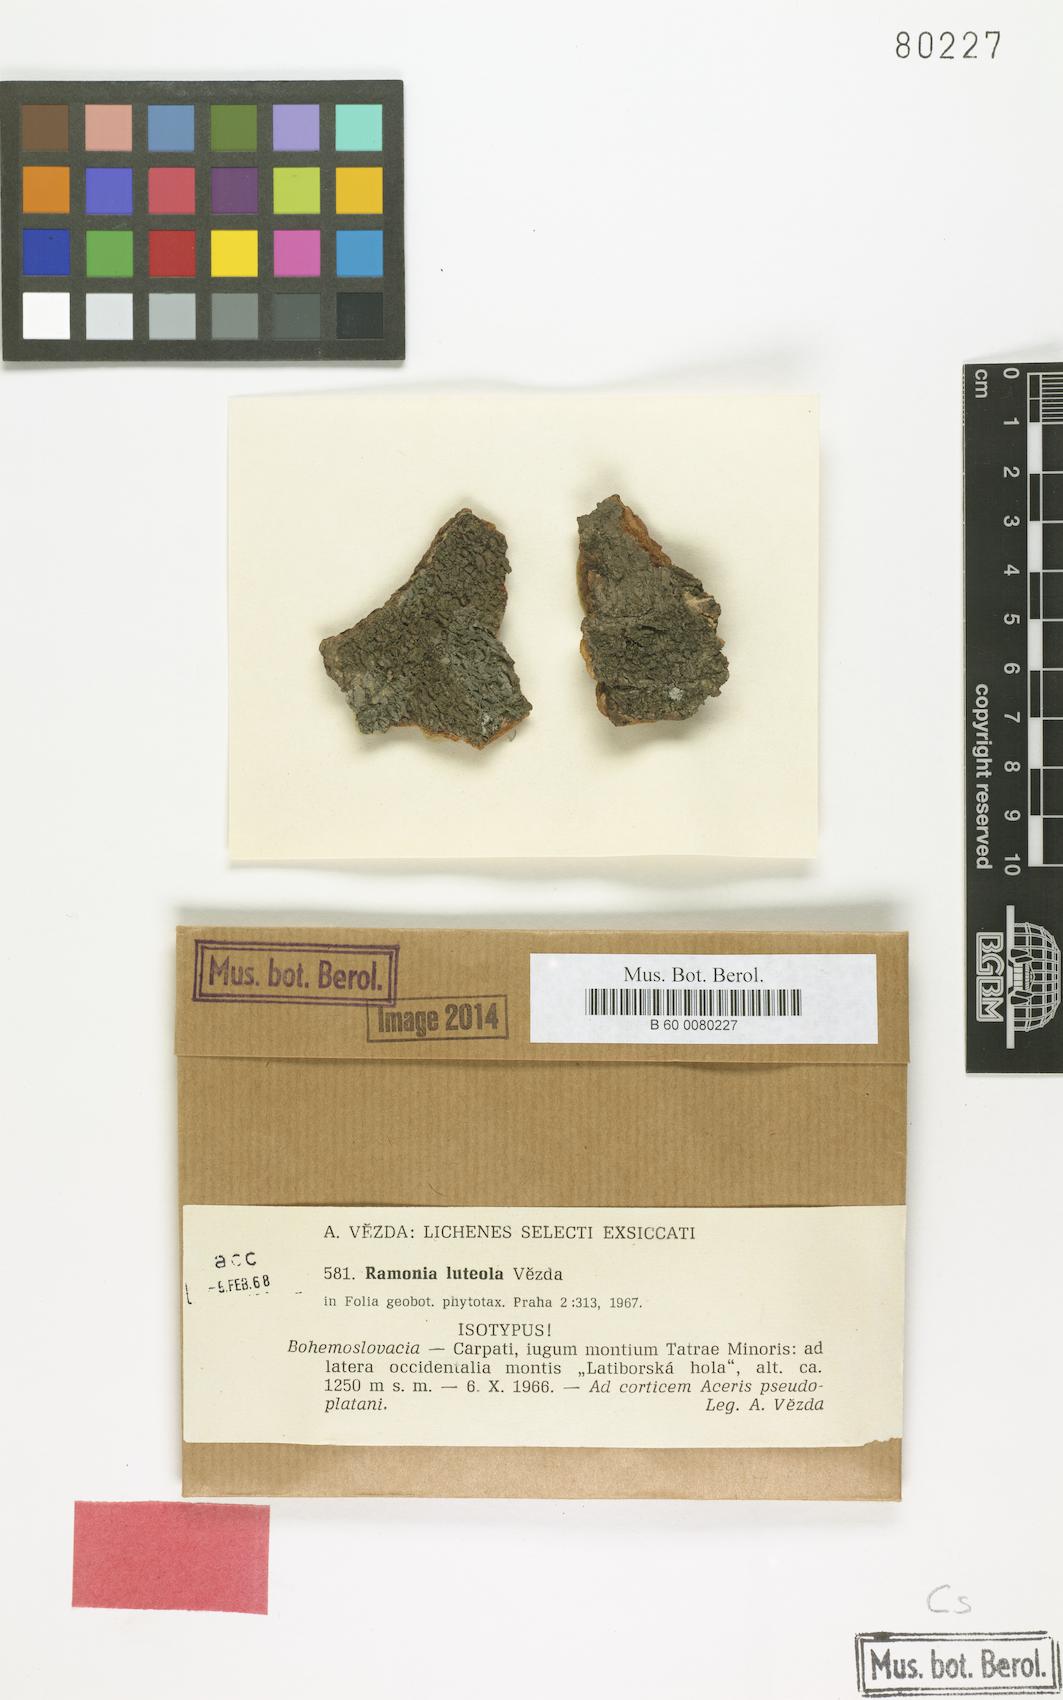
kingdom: Fungi
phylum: Ascomycota
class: Lecanoromycetes
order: Gyalectales
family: Gyalectaceae
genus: Ramonia
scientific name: Ramonia luteola
